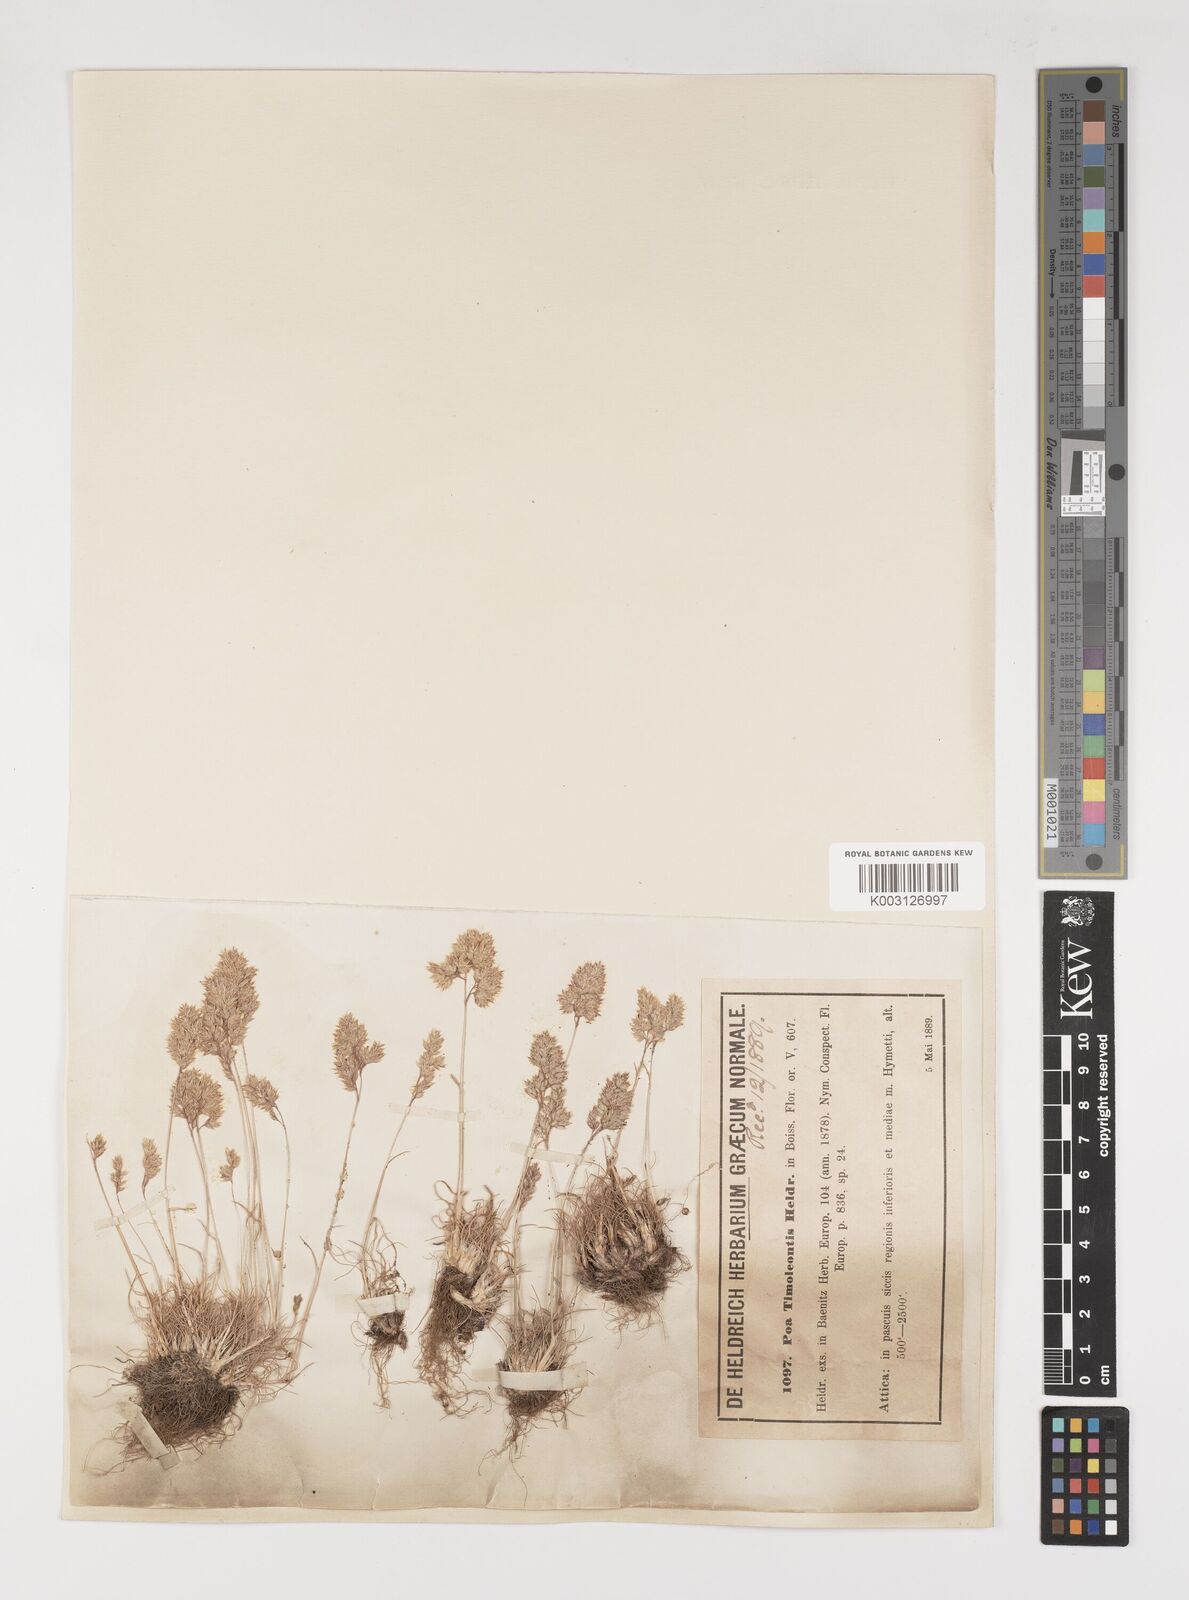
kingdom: Plantae
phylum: Tracheophyta
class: Liliopsida
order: Poales
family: Poaceae
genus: Poa
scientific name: Poa timoleontis
